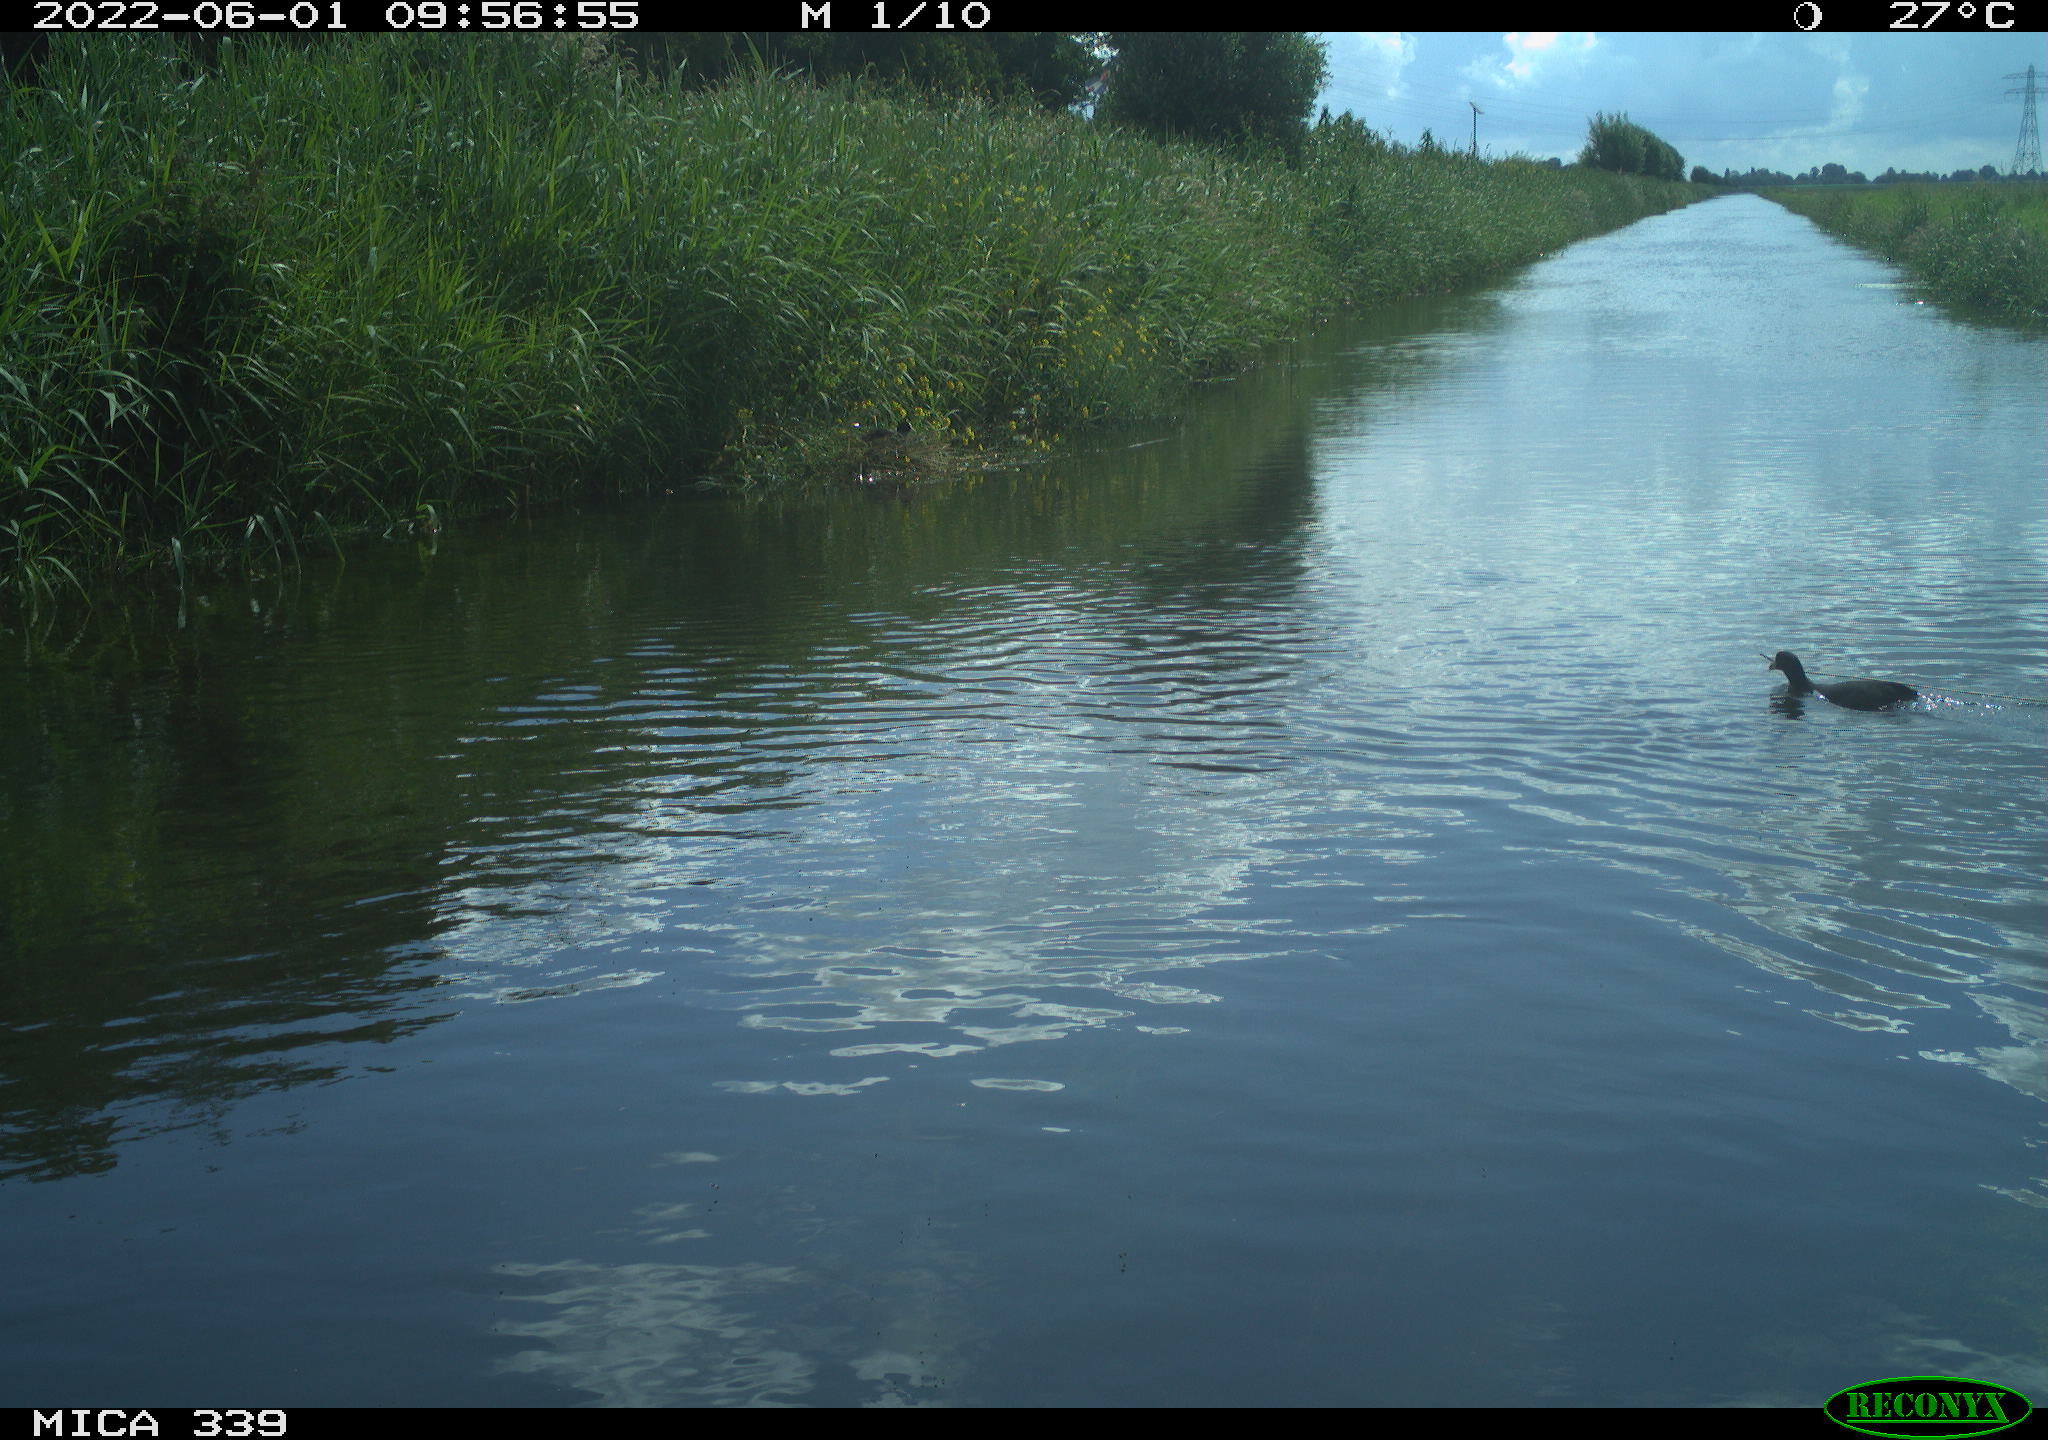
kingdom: Animalia
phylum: Chordata
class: Aves
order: Gruiformes
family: Rallidae
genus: Fulica
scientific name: Fulica atra
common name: Eurasian coot
